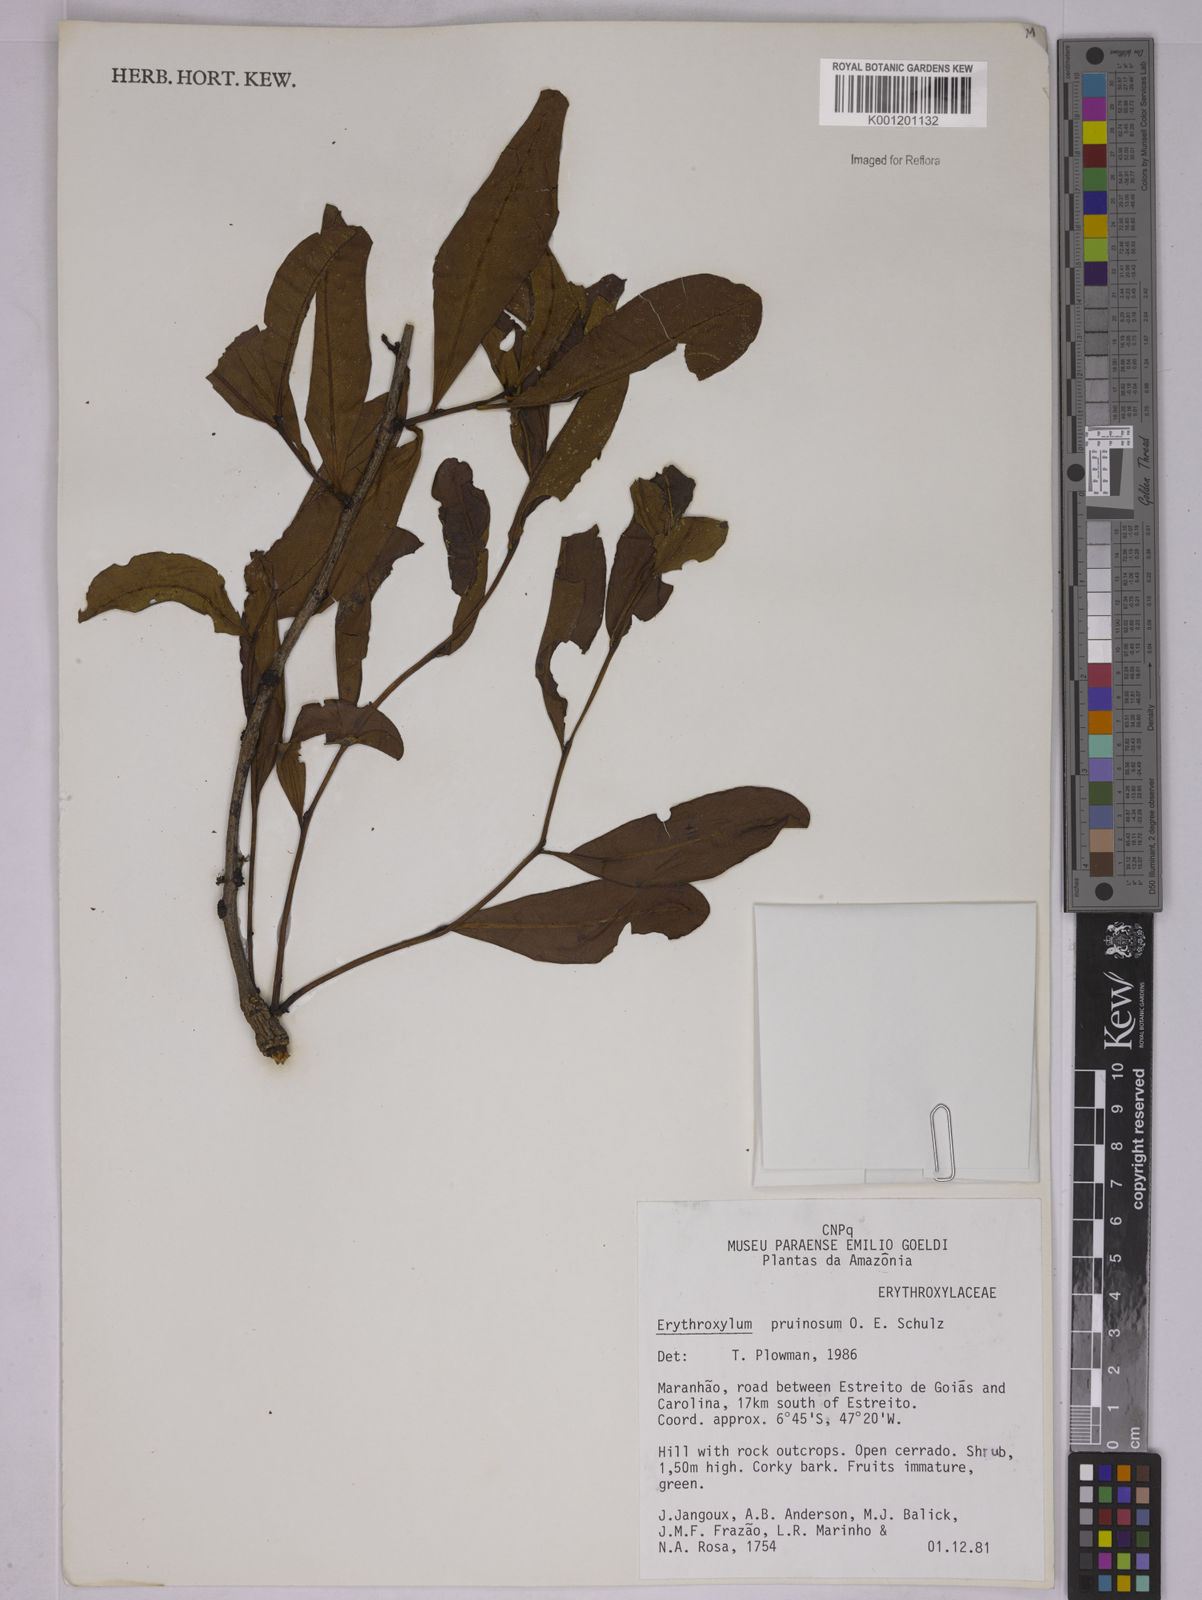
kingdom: Plantae
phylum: Tracheophyta
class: Magnoliopsida
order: Malpighiales
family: Erythroxylaceae
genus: Erythroxylum
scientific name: Erythroxylum pruinosum
